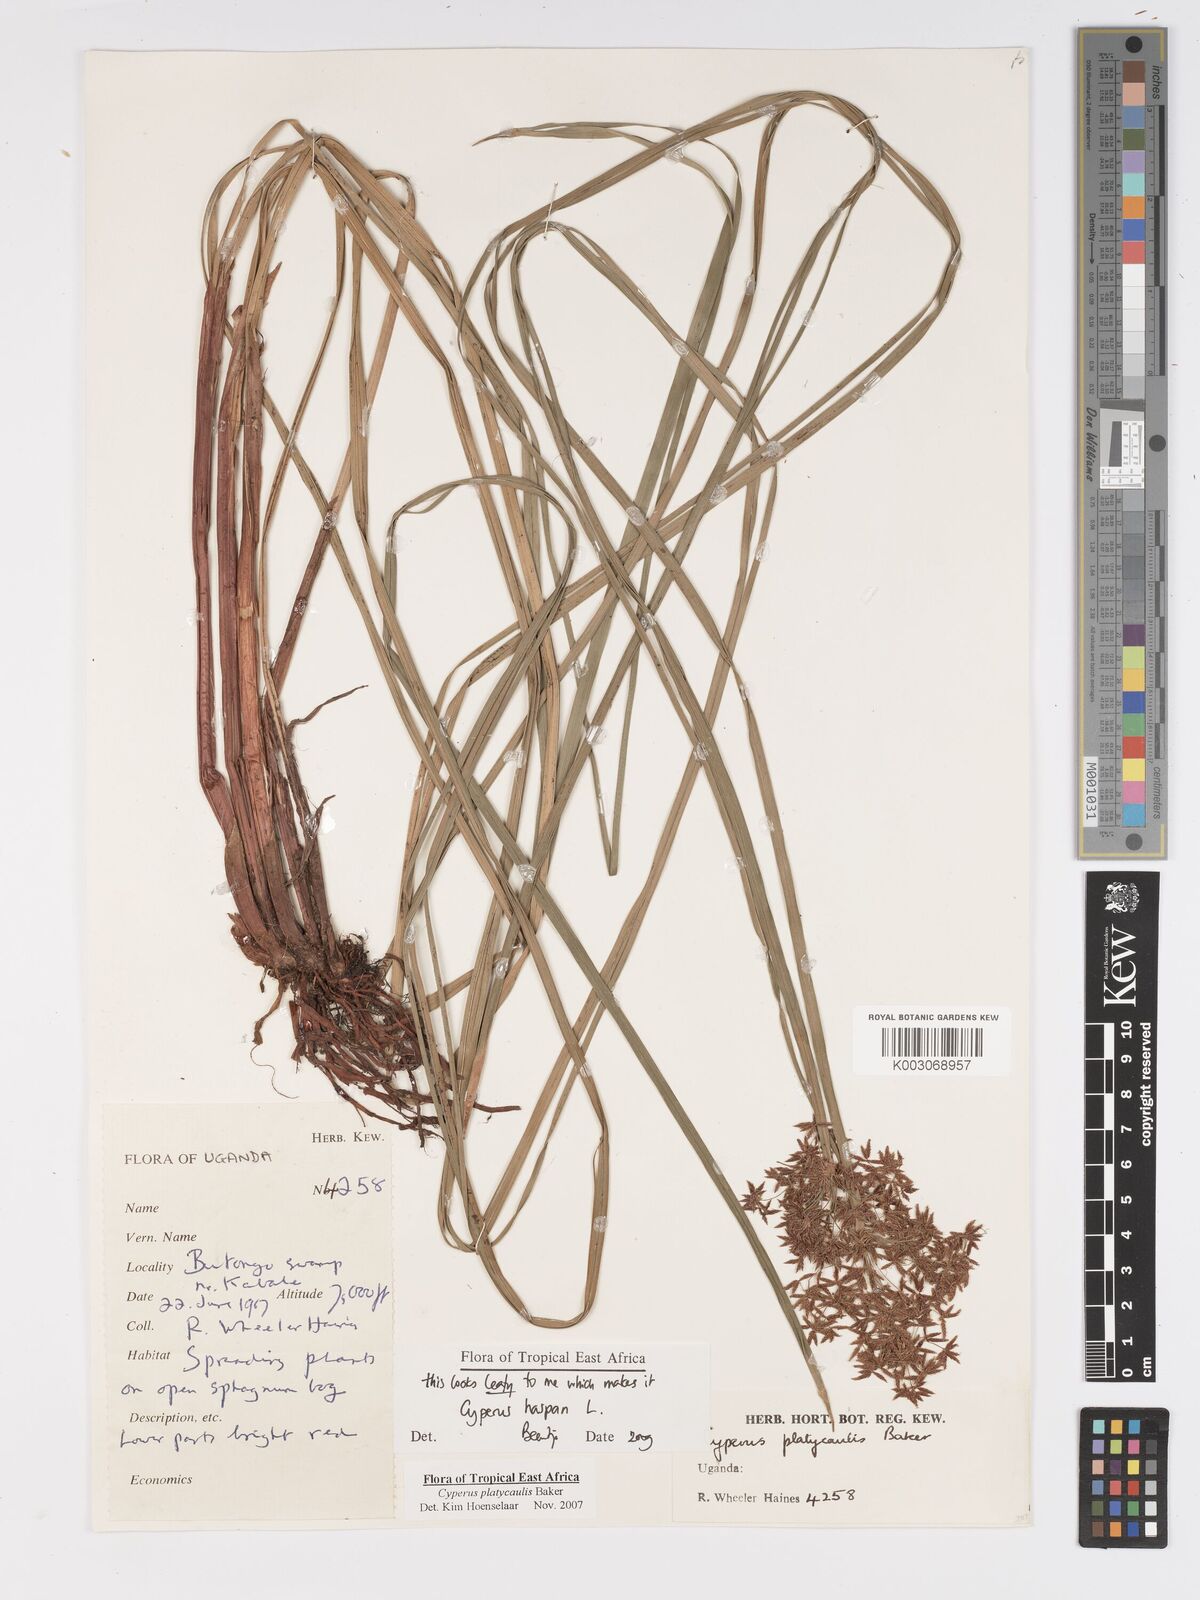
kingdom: Plantae
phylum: Tracheophyta
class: Liliopsida
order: Poales
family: Cyperaceae
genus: Cyperus
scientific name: Cyperus haspan
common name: Haspan flatsedge
